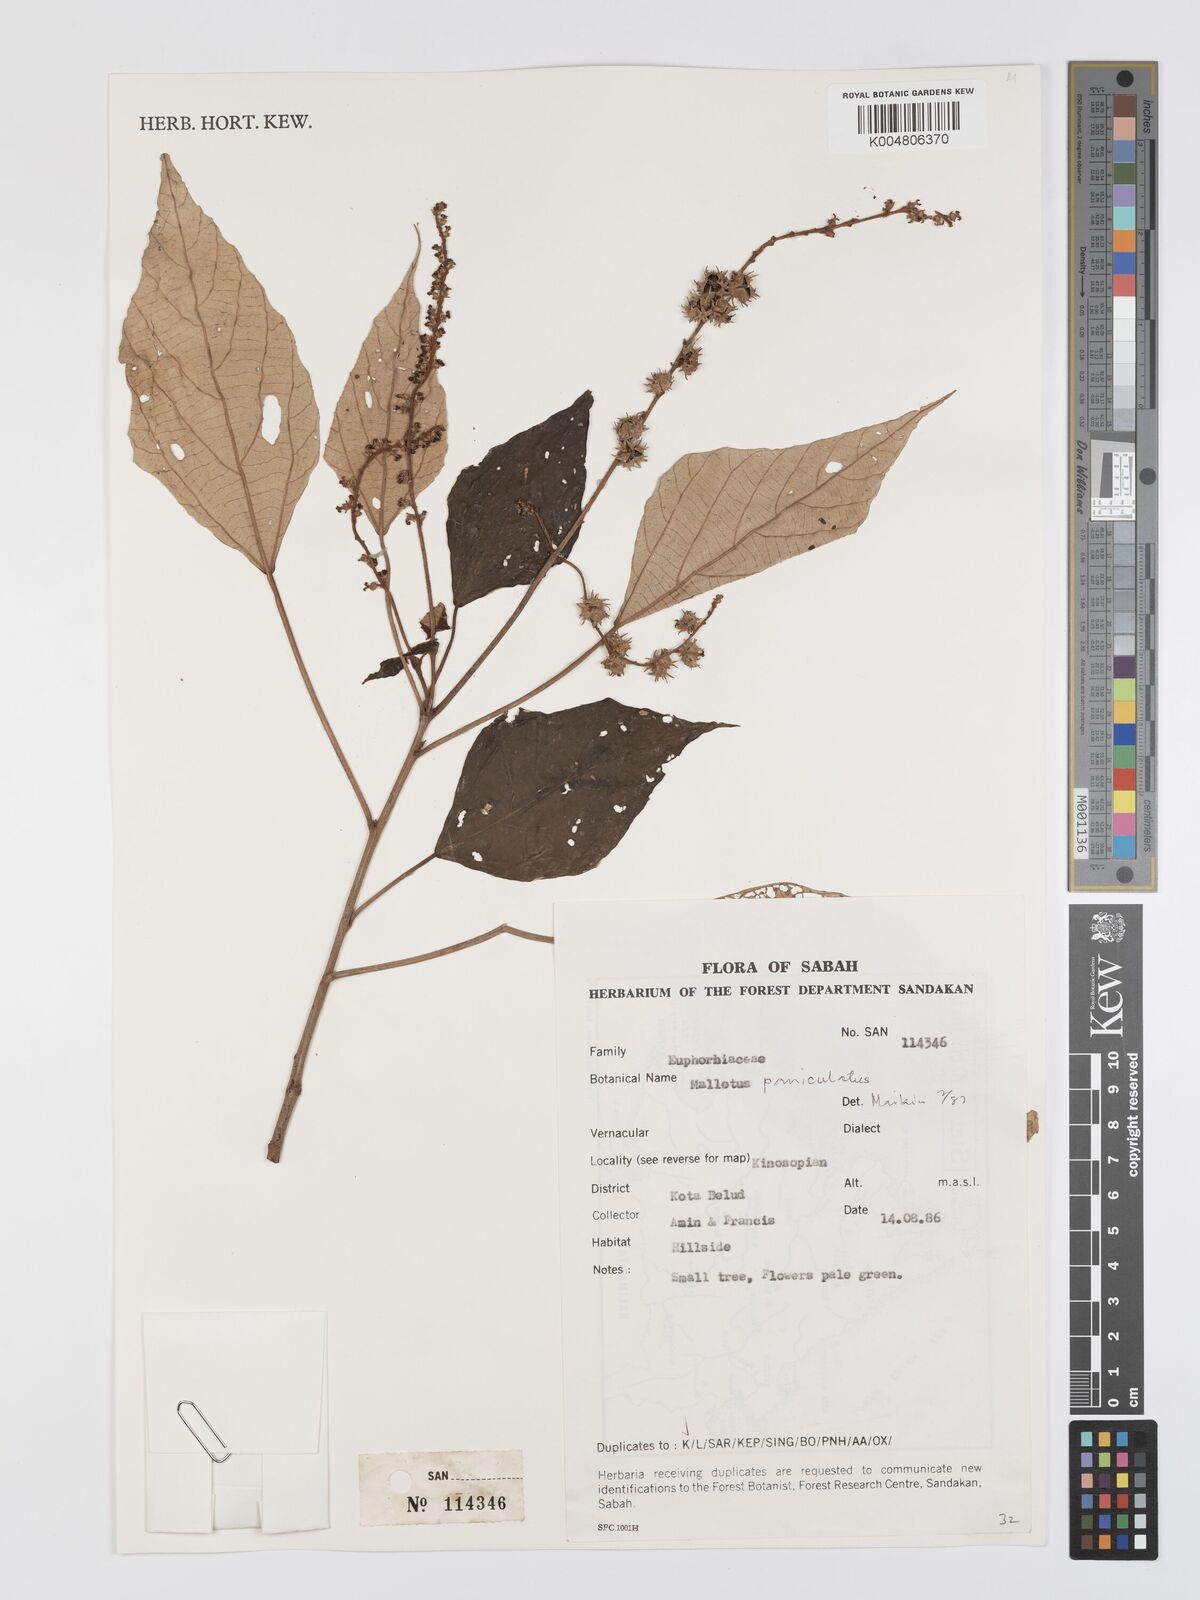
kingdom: Plantae
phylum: Tracheophyta
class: Magnoliopsida
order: Malpighiales
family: Euphorbiaceae
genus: Mallotus
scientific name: Mallotus paniculatus
